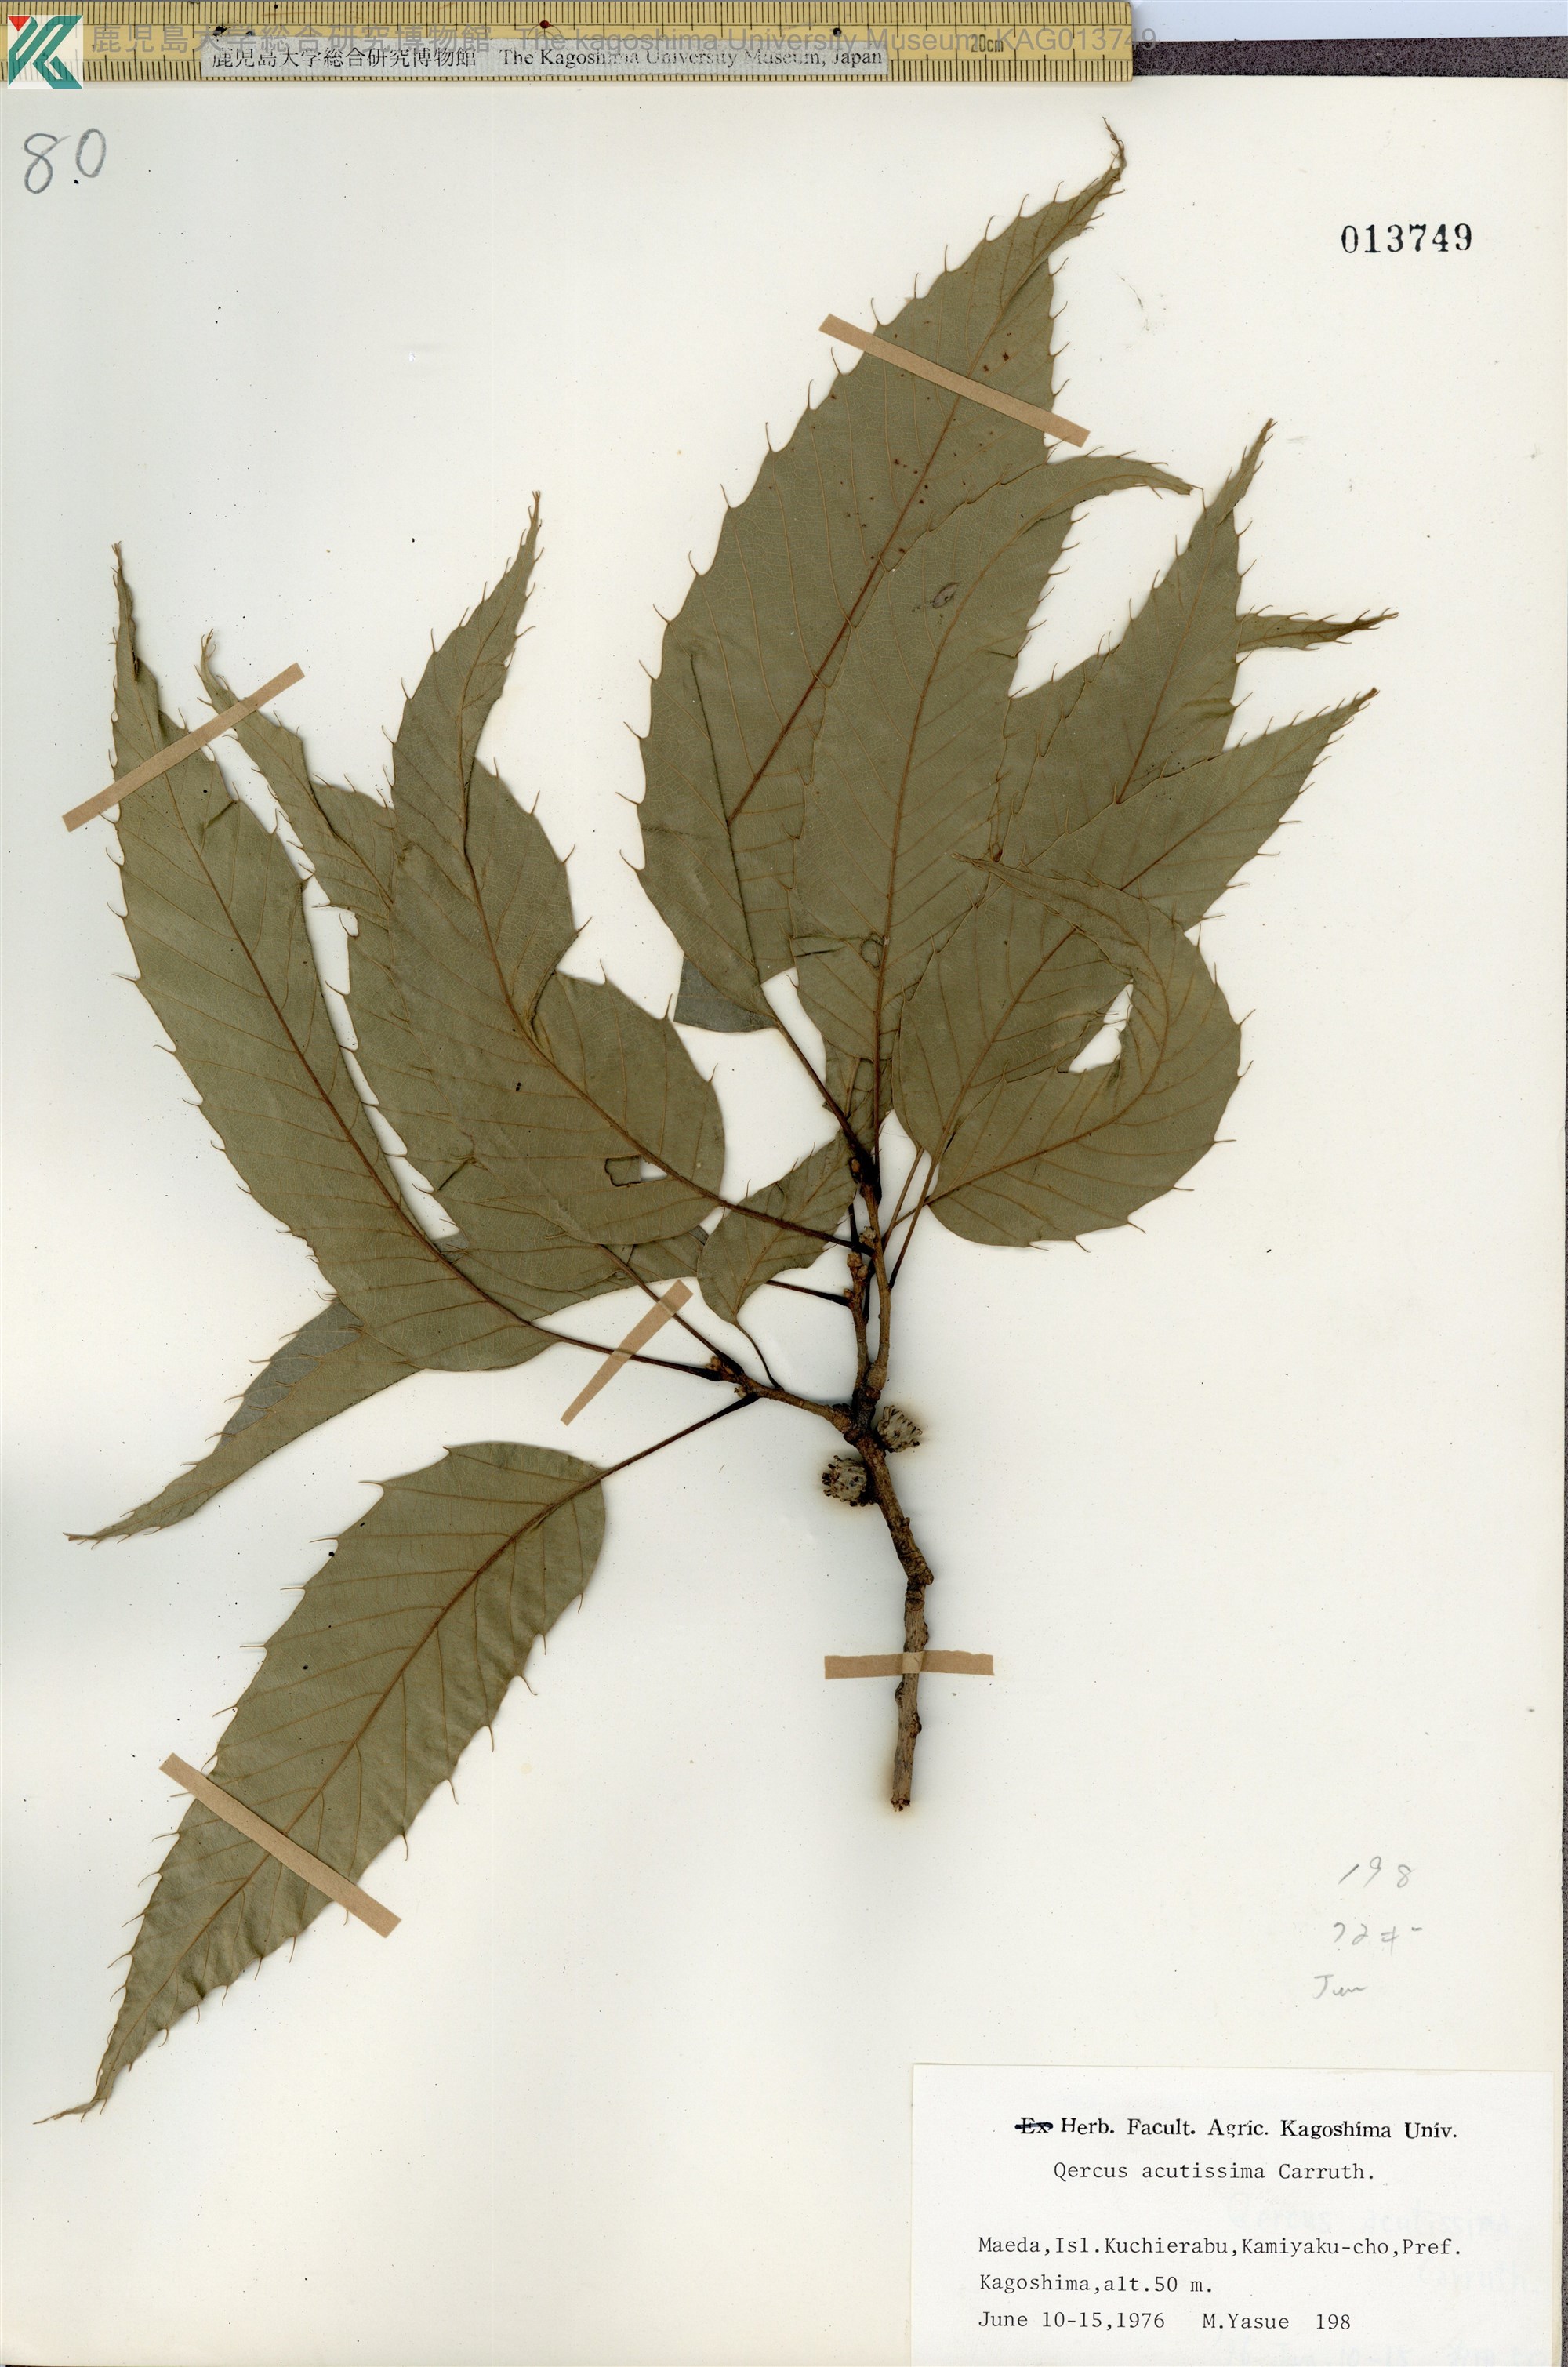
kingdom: Plantae
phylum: Tracheophyta
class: Magnoliopsida
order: Fagales
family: Fagaceae
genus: Quercus
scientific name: Quercus acutissima
